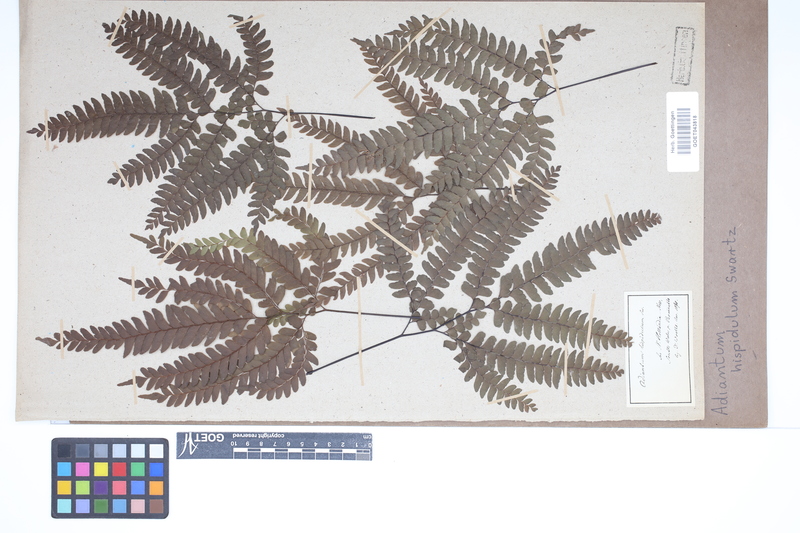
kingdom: Plantae
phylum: Tracheophyta
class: Polypodiopsida
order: Polypodiales
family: Pteridaceae
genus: Adiantum
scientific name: Adiantum hispidulum
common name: Rough maidenhair
